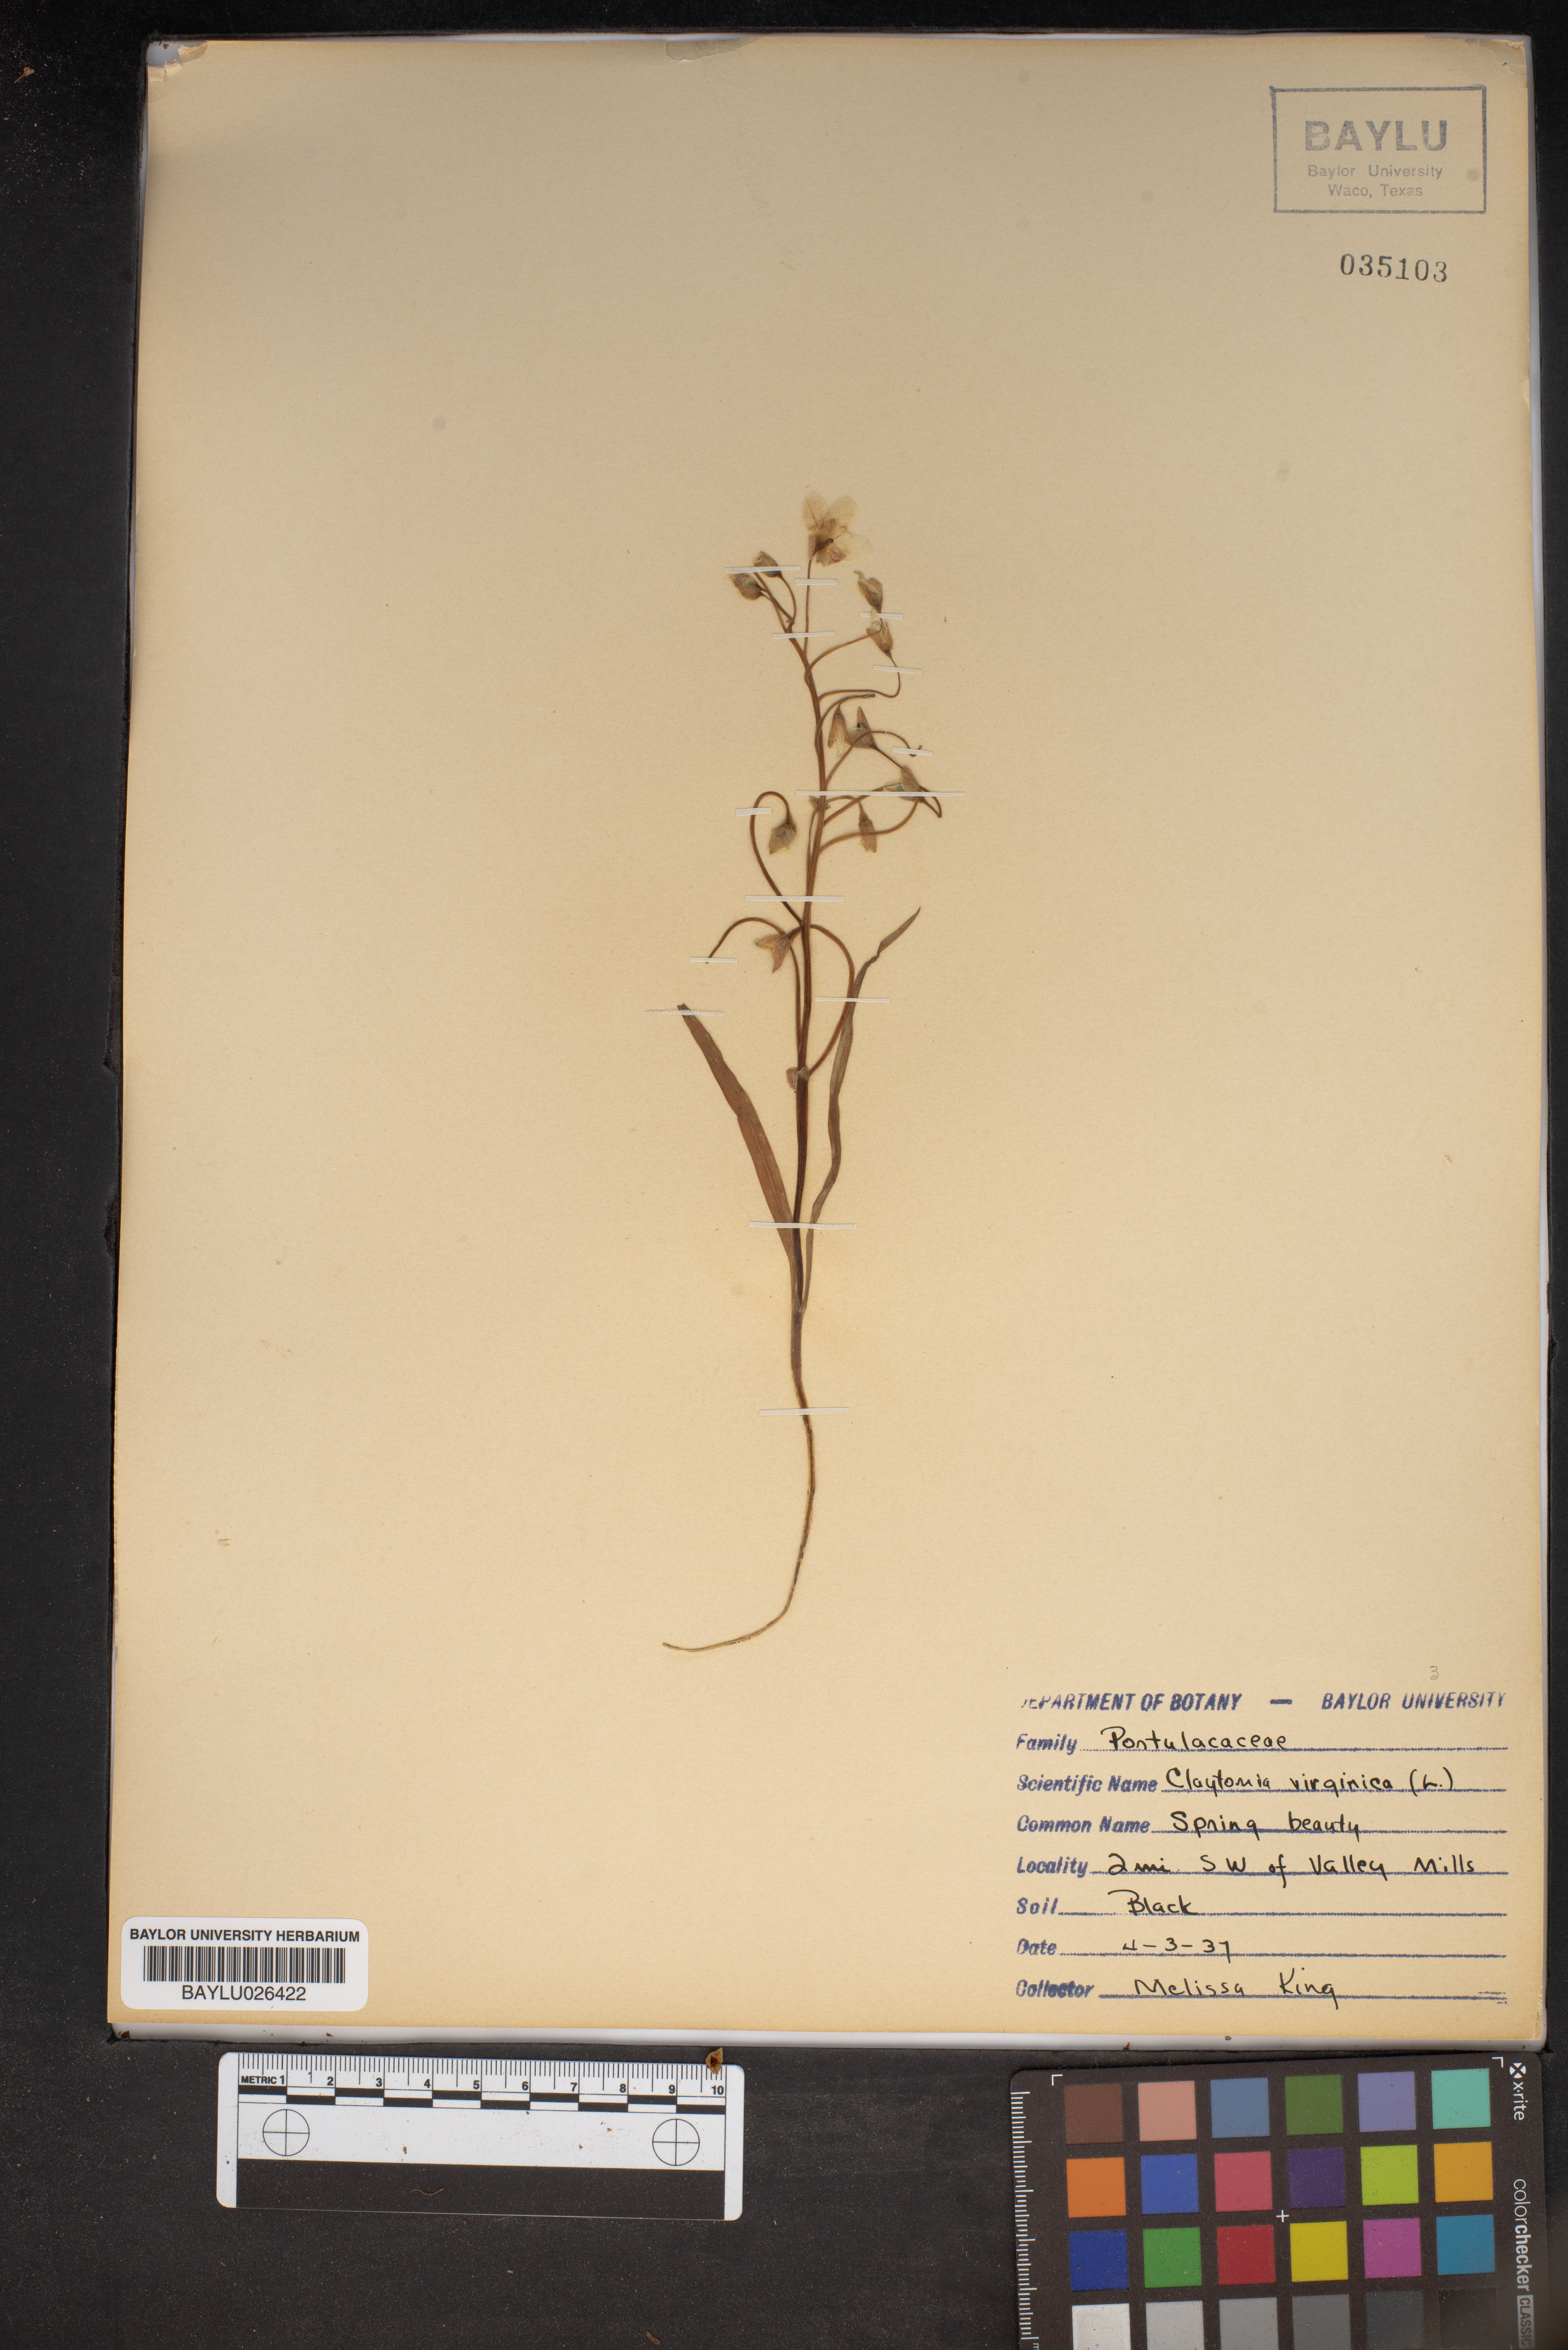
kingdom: Plantae
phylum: Tracheophyta
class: Magnoliopsida
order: Caryophyllales
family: Montiaceae
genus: Claytonia
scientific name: Claytonia virginica
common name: Virginia springbeauty
